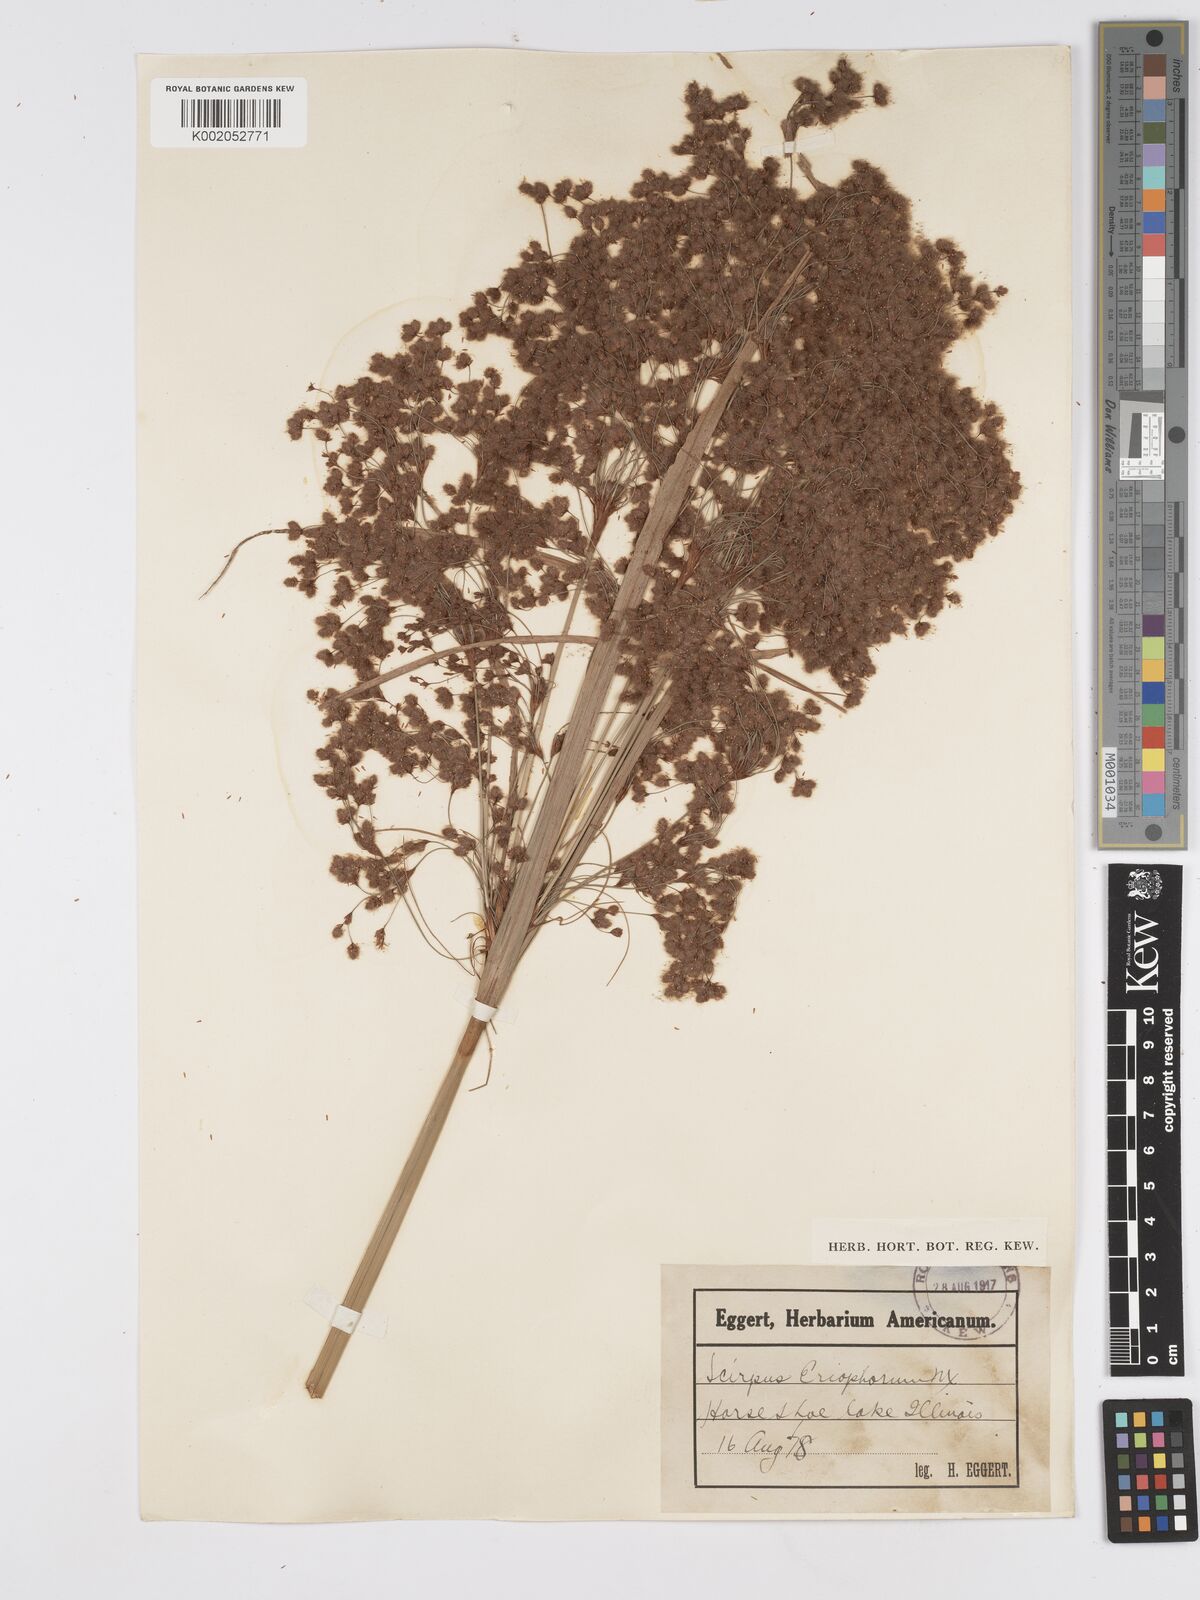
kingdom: Plantae
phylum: Tracheophyta
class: Liliopsida
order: Poales
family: Cyperaceae
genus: Scirpus
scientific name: Scirpus cyperinus
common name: Black-sheathed bulrush
